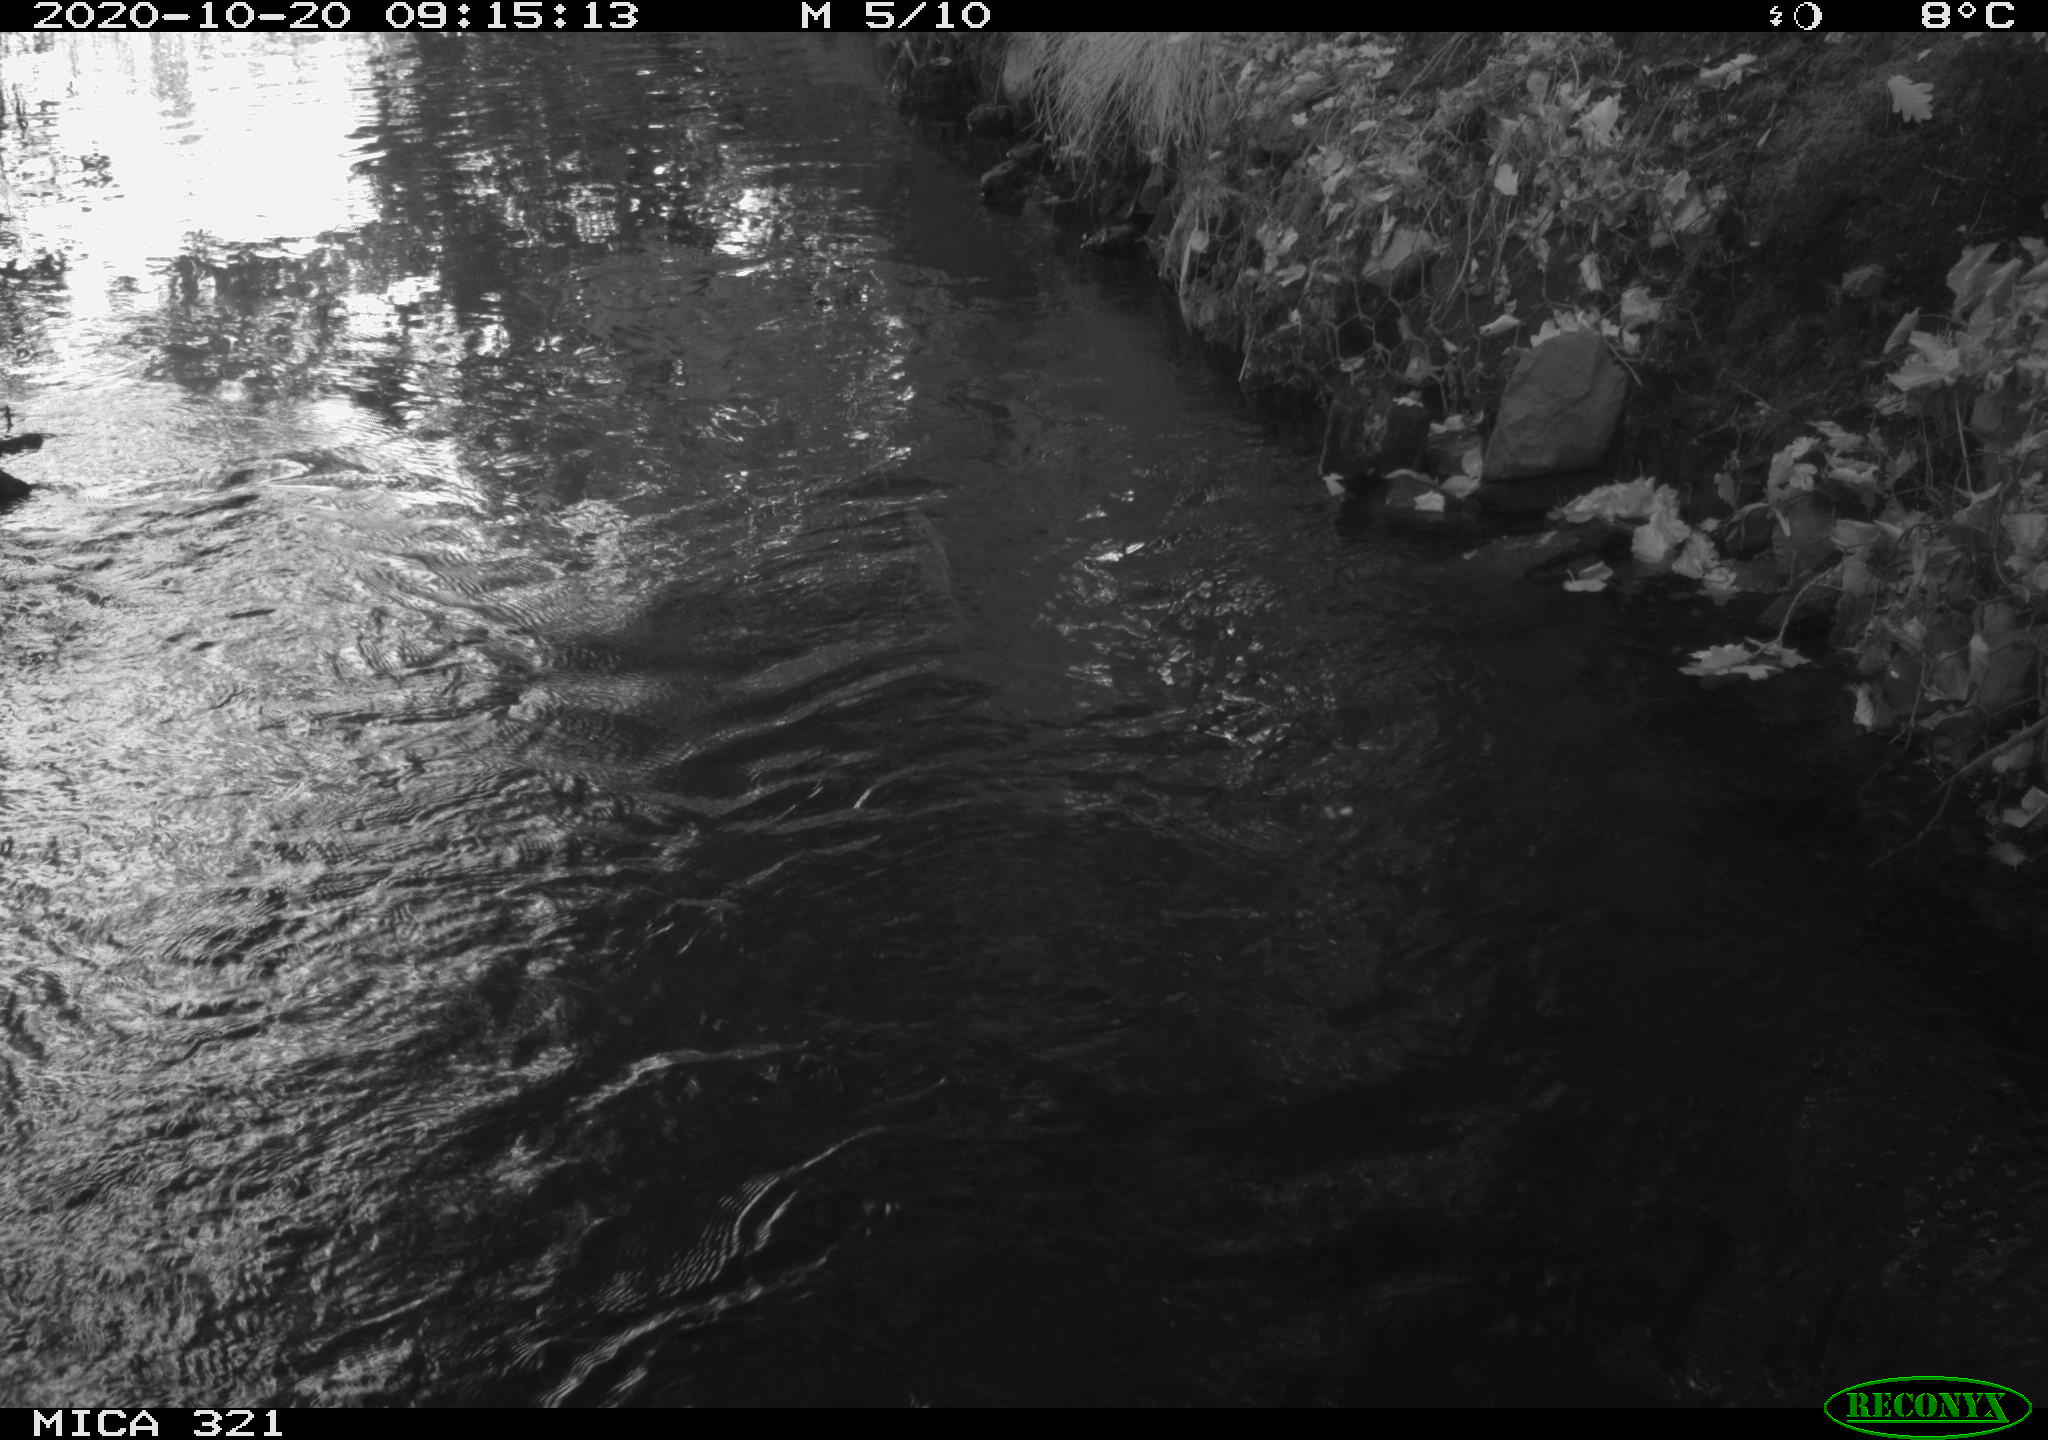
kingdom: Animalia
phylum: Chordata
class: Aves
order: Anseriformes
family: Anatidae
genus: Anas
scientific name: Anas platyrhynchos
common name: Mallard
